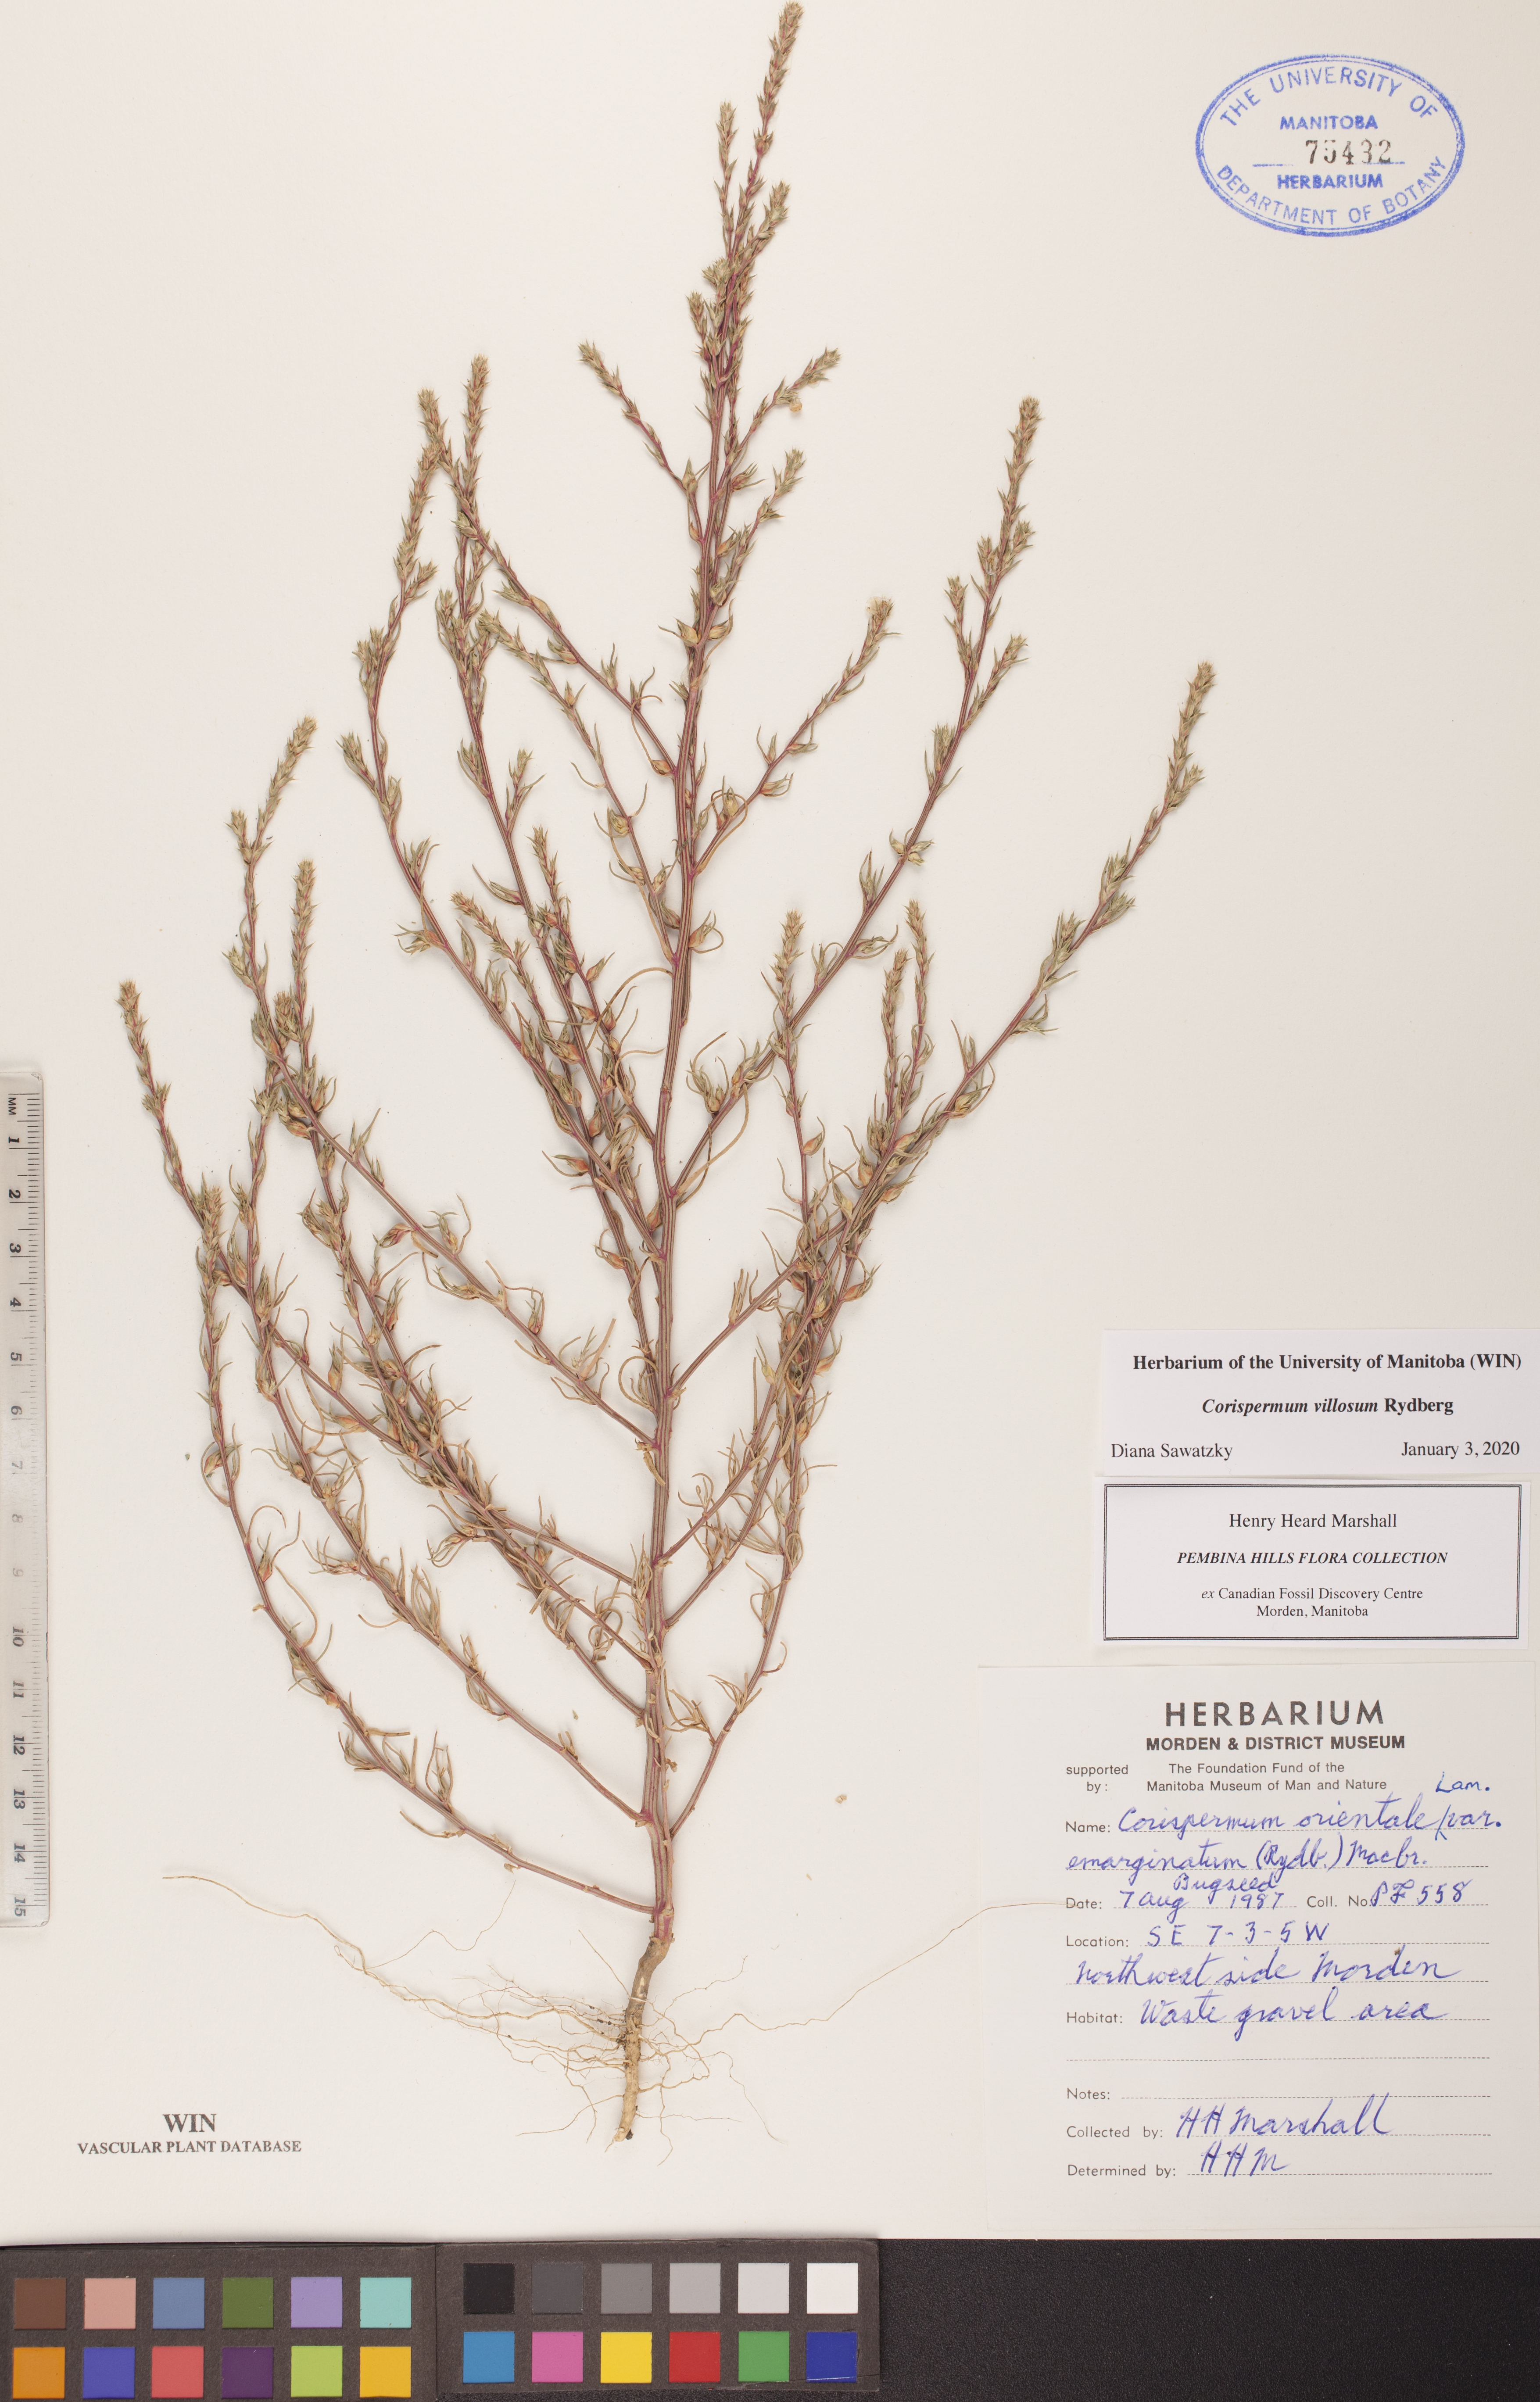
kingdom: Plantae
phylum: Tracheophyta
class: Magnoliopsida
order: Caryophyllales
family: Amaranthaceae
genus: Corispermum
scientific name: Corispermum villosum
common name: Hairy bugseed
